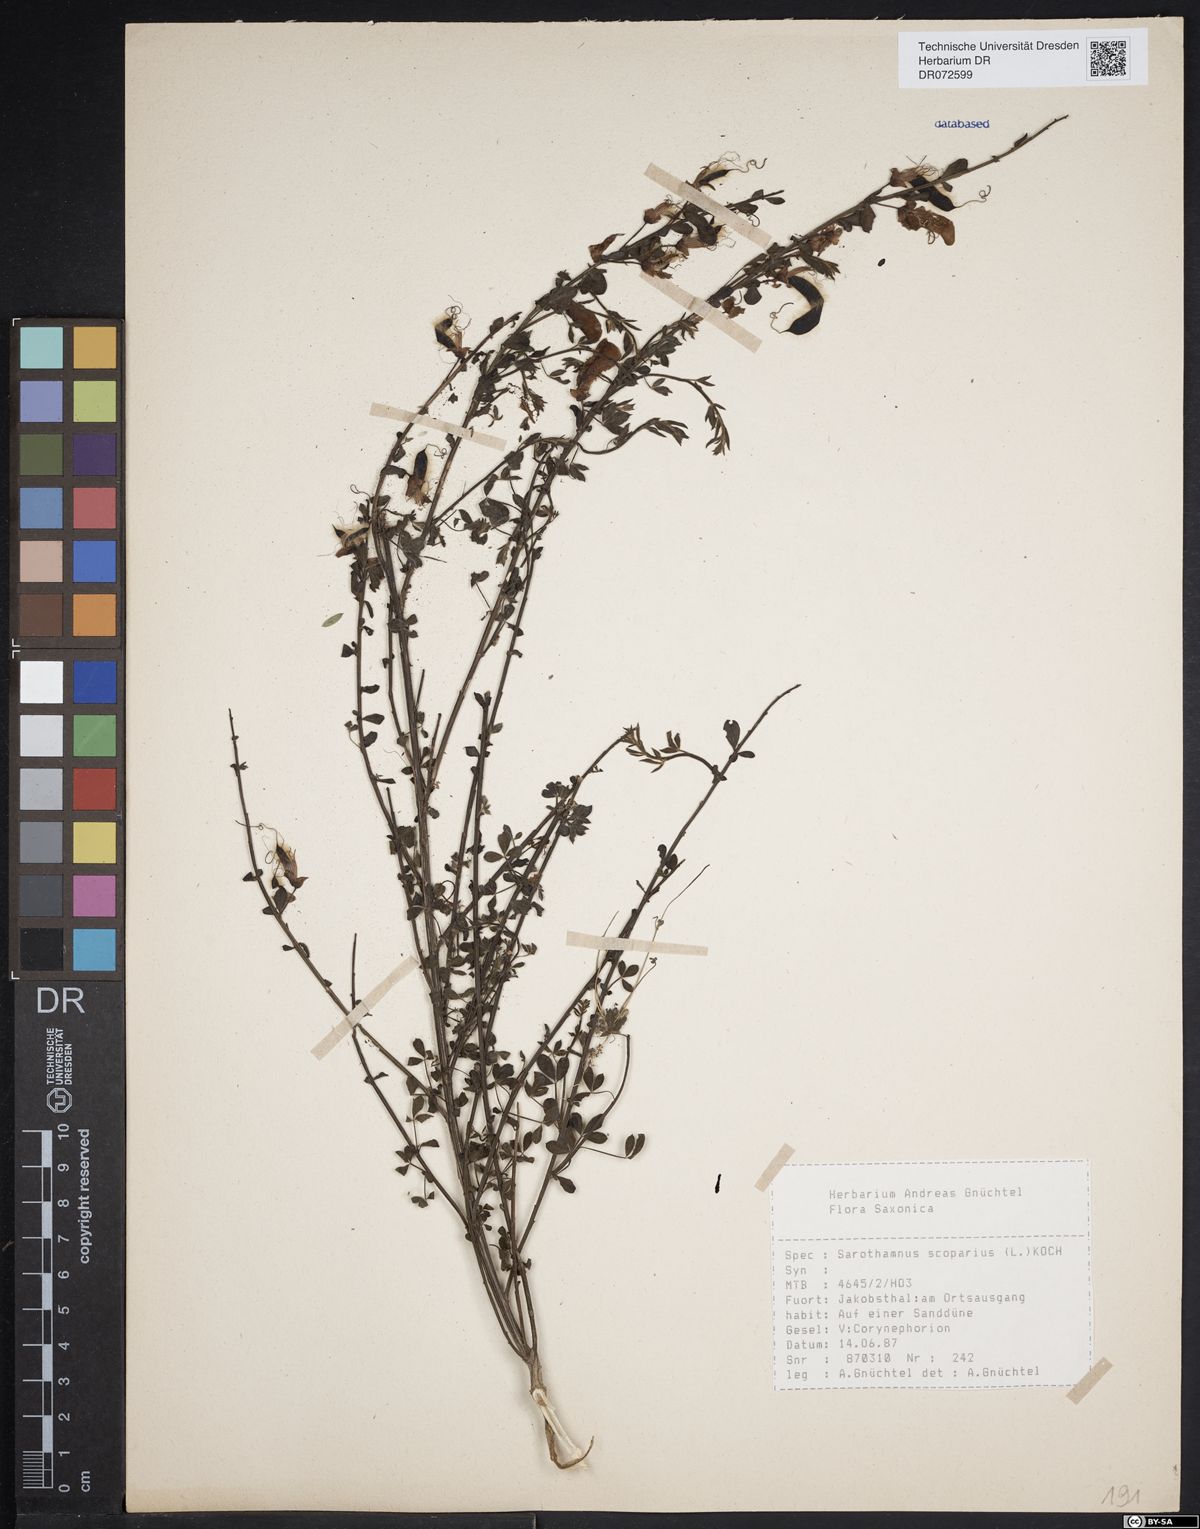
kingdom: Plantae
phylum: Tracheophyta
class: Magnoliopsida
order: Fabales
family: Fabaceae
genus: Cytisus
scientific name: Cytisus scoparius
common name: Scotch broom
